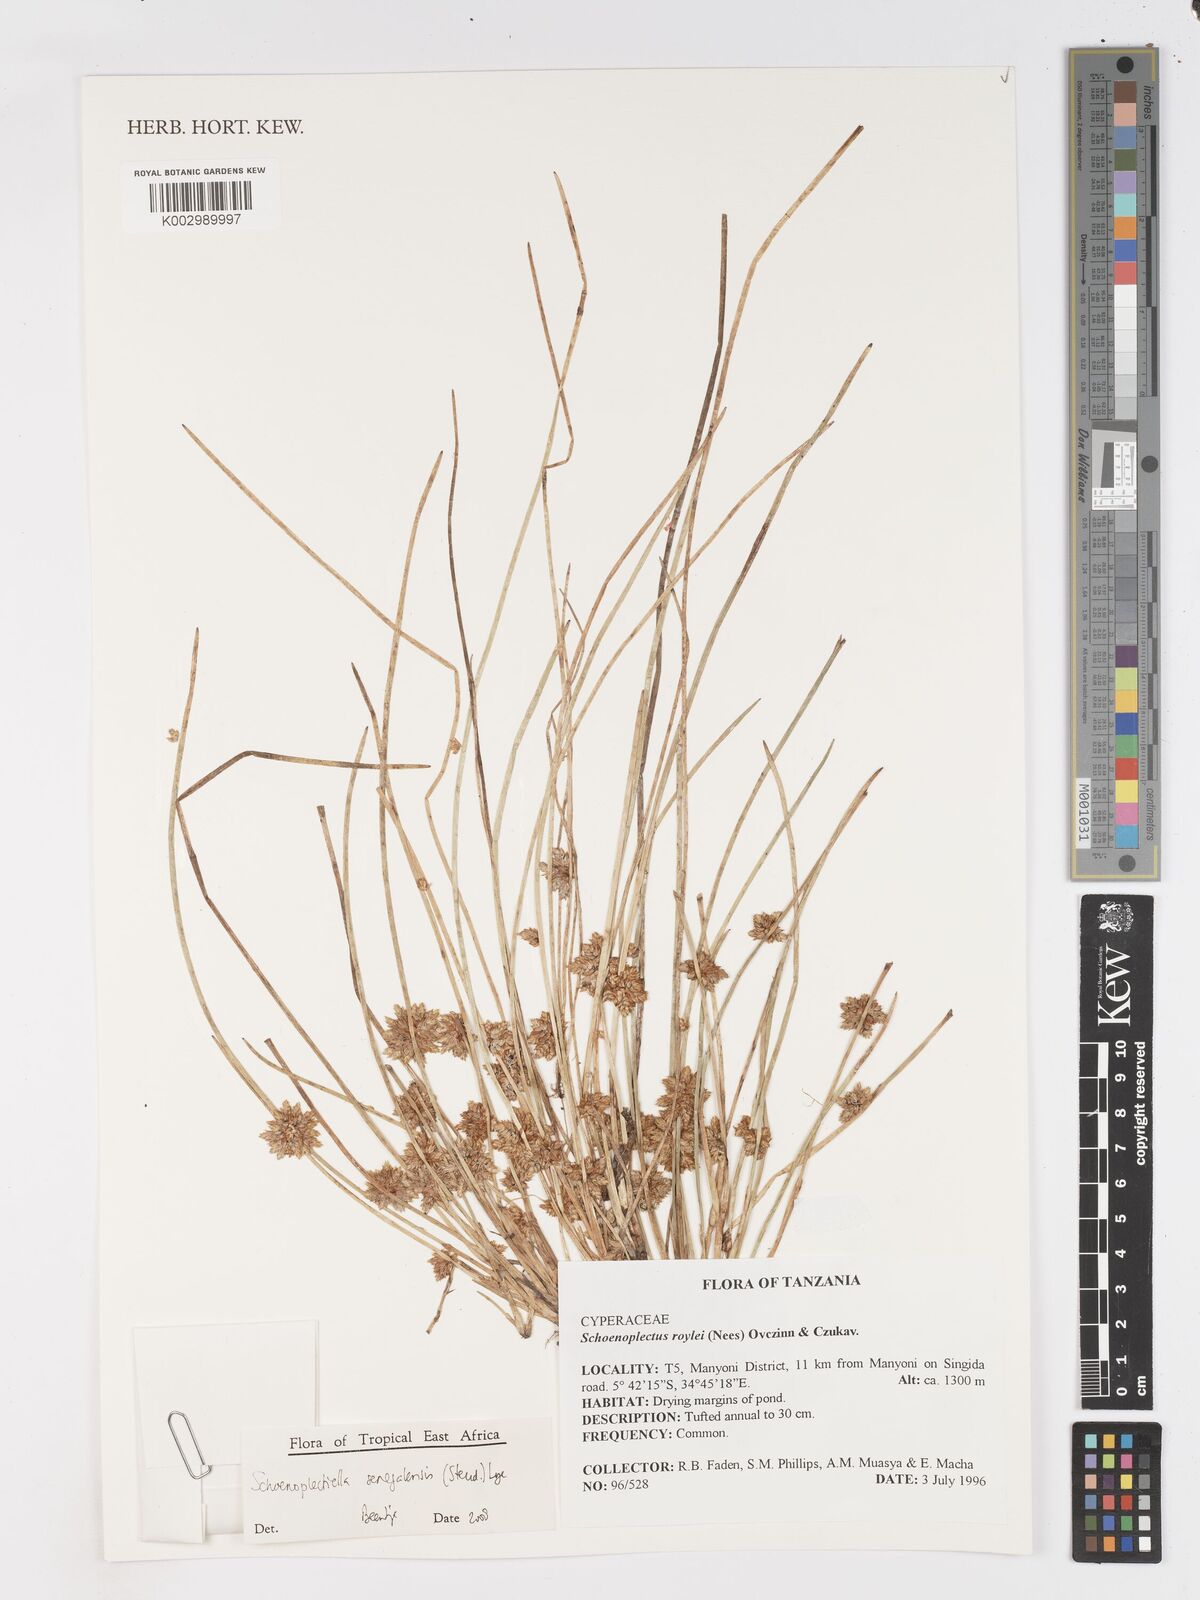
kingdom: Plantae
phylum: Tracheophyta
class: Liliopsida
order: Poales
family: Cyperaceae
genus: Schoenoplectiella
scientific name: Schoenoplectiella senegalensis
